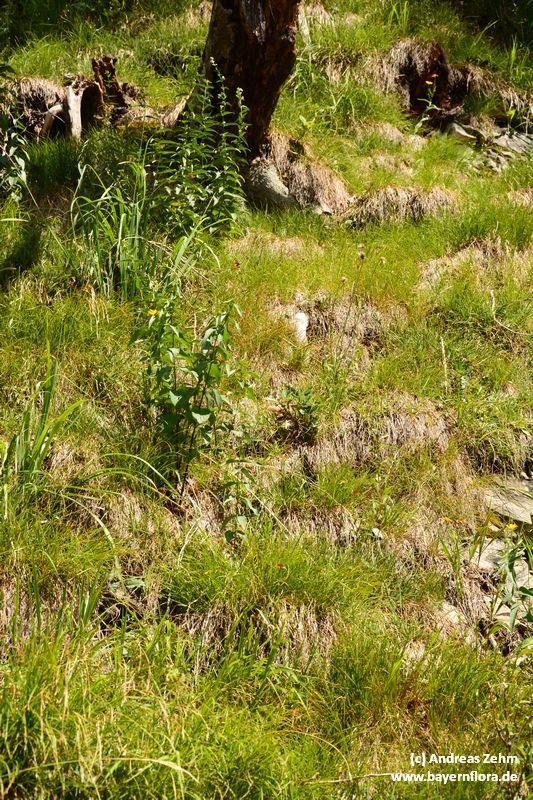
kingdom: Plantae
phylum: Tracheophyta
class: Liliopsida
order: Poales
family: Cyperaceae
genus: Carex
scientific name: Carex humilis
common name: Dwarf sedge
